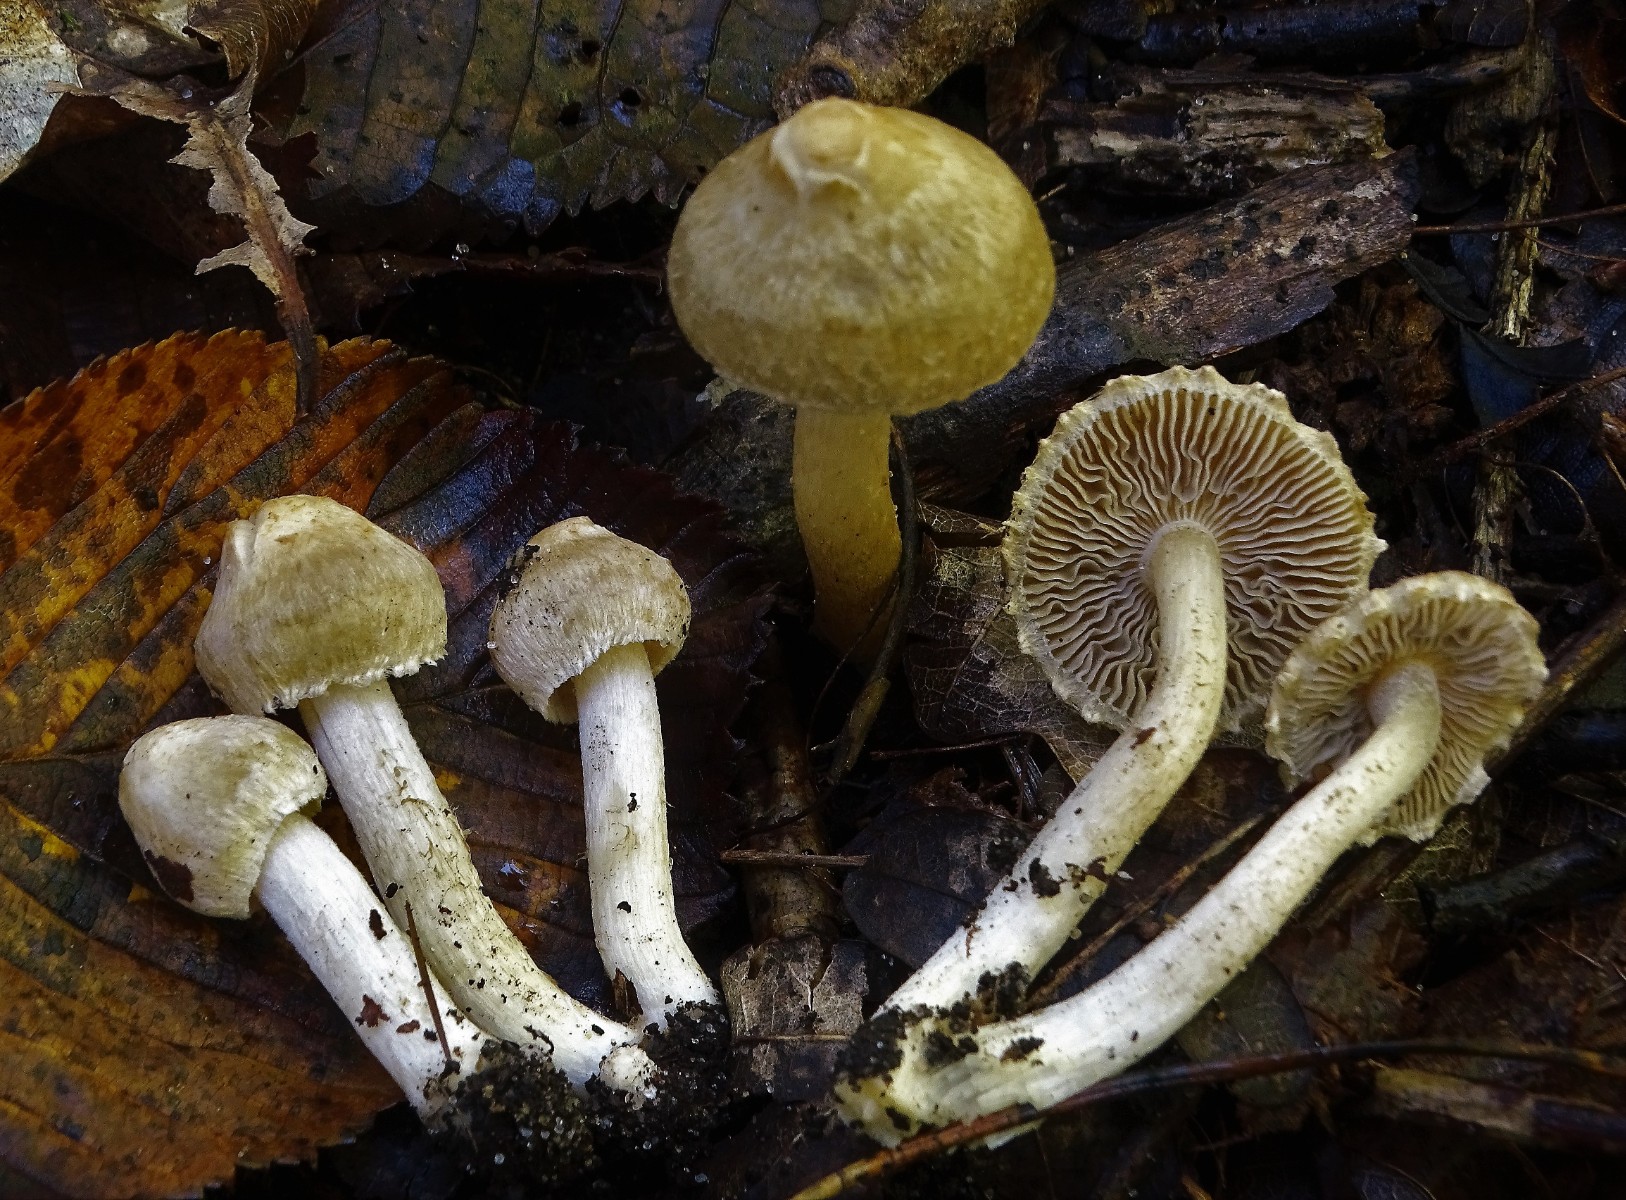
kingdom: Fungi
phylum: Basidiomycota
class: Agaricomycetes
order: Agaricales
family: Inocybaceae
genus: Inocybe
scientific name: Inocybe appendiculata
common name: tandet trævlhat
